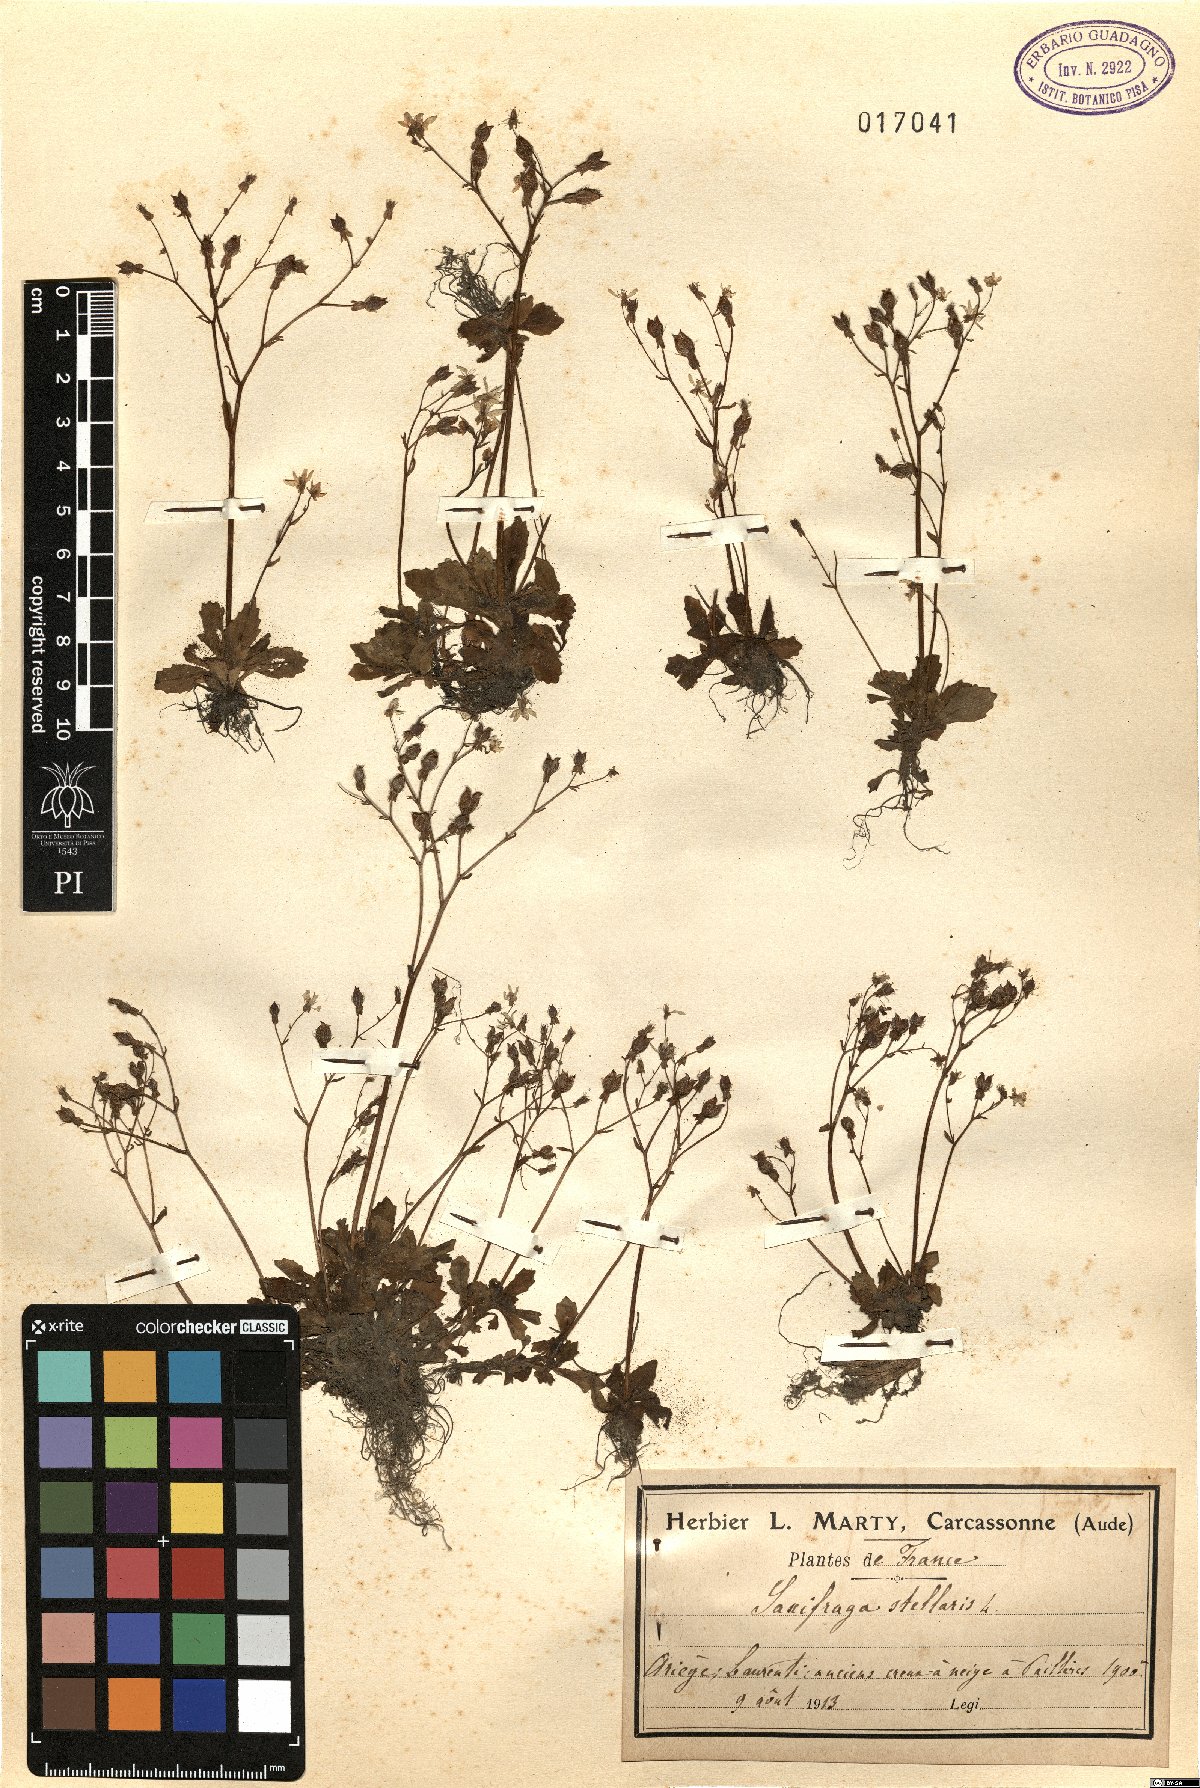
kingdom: Plantae
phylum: Tracheophyta
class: Magnoliopsida
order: Saxifragales
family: Saxifragaceae
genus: Micranthes
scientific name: Micranthes stellaris
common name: Starry saxifrage
